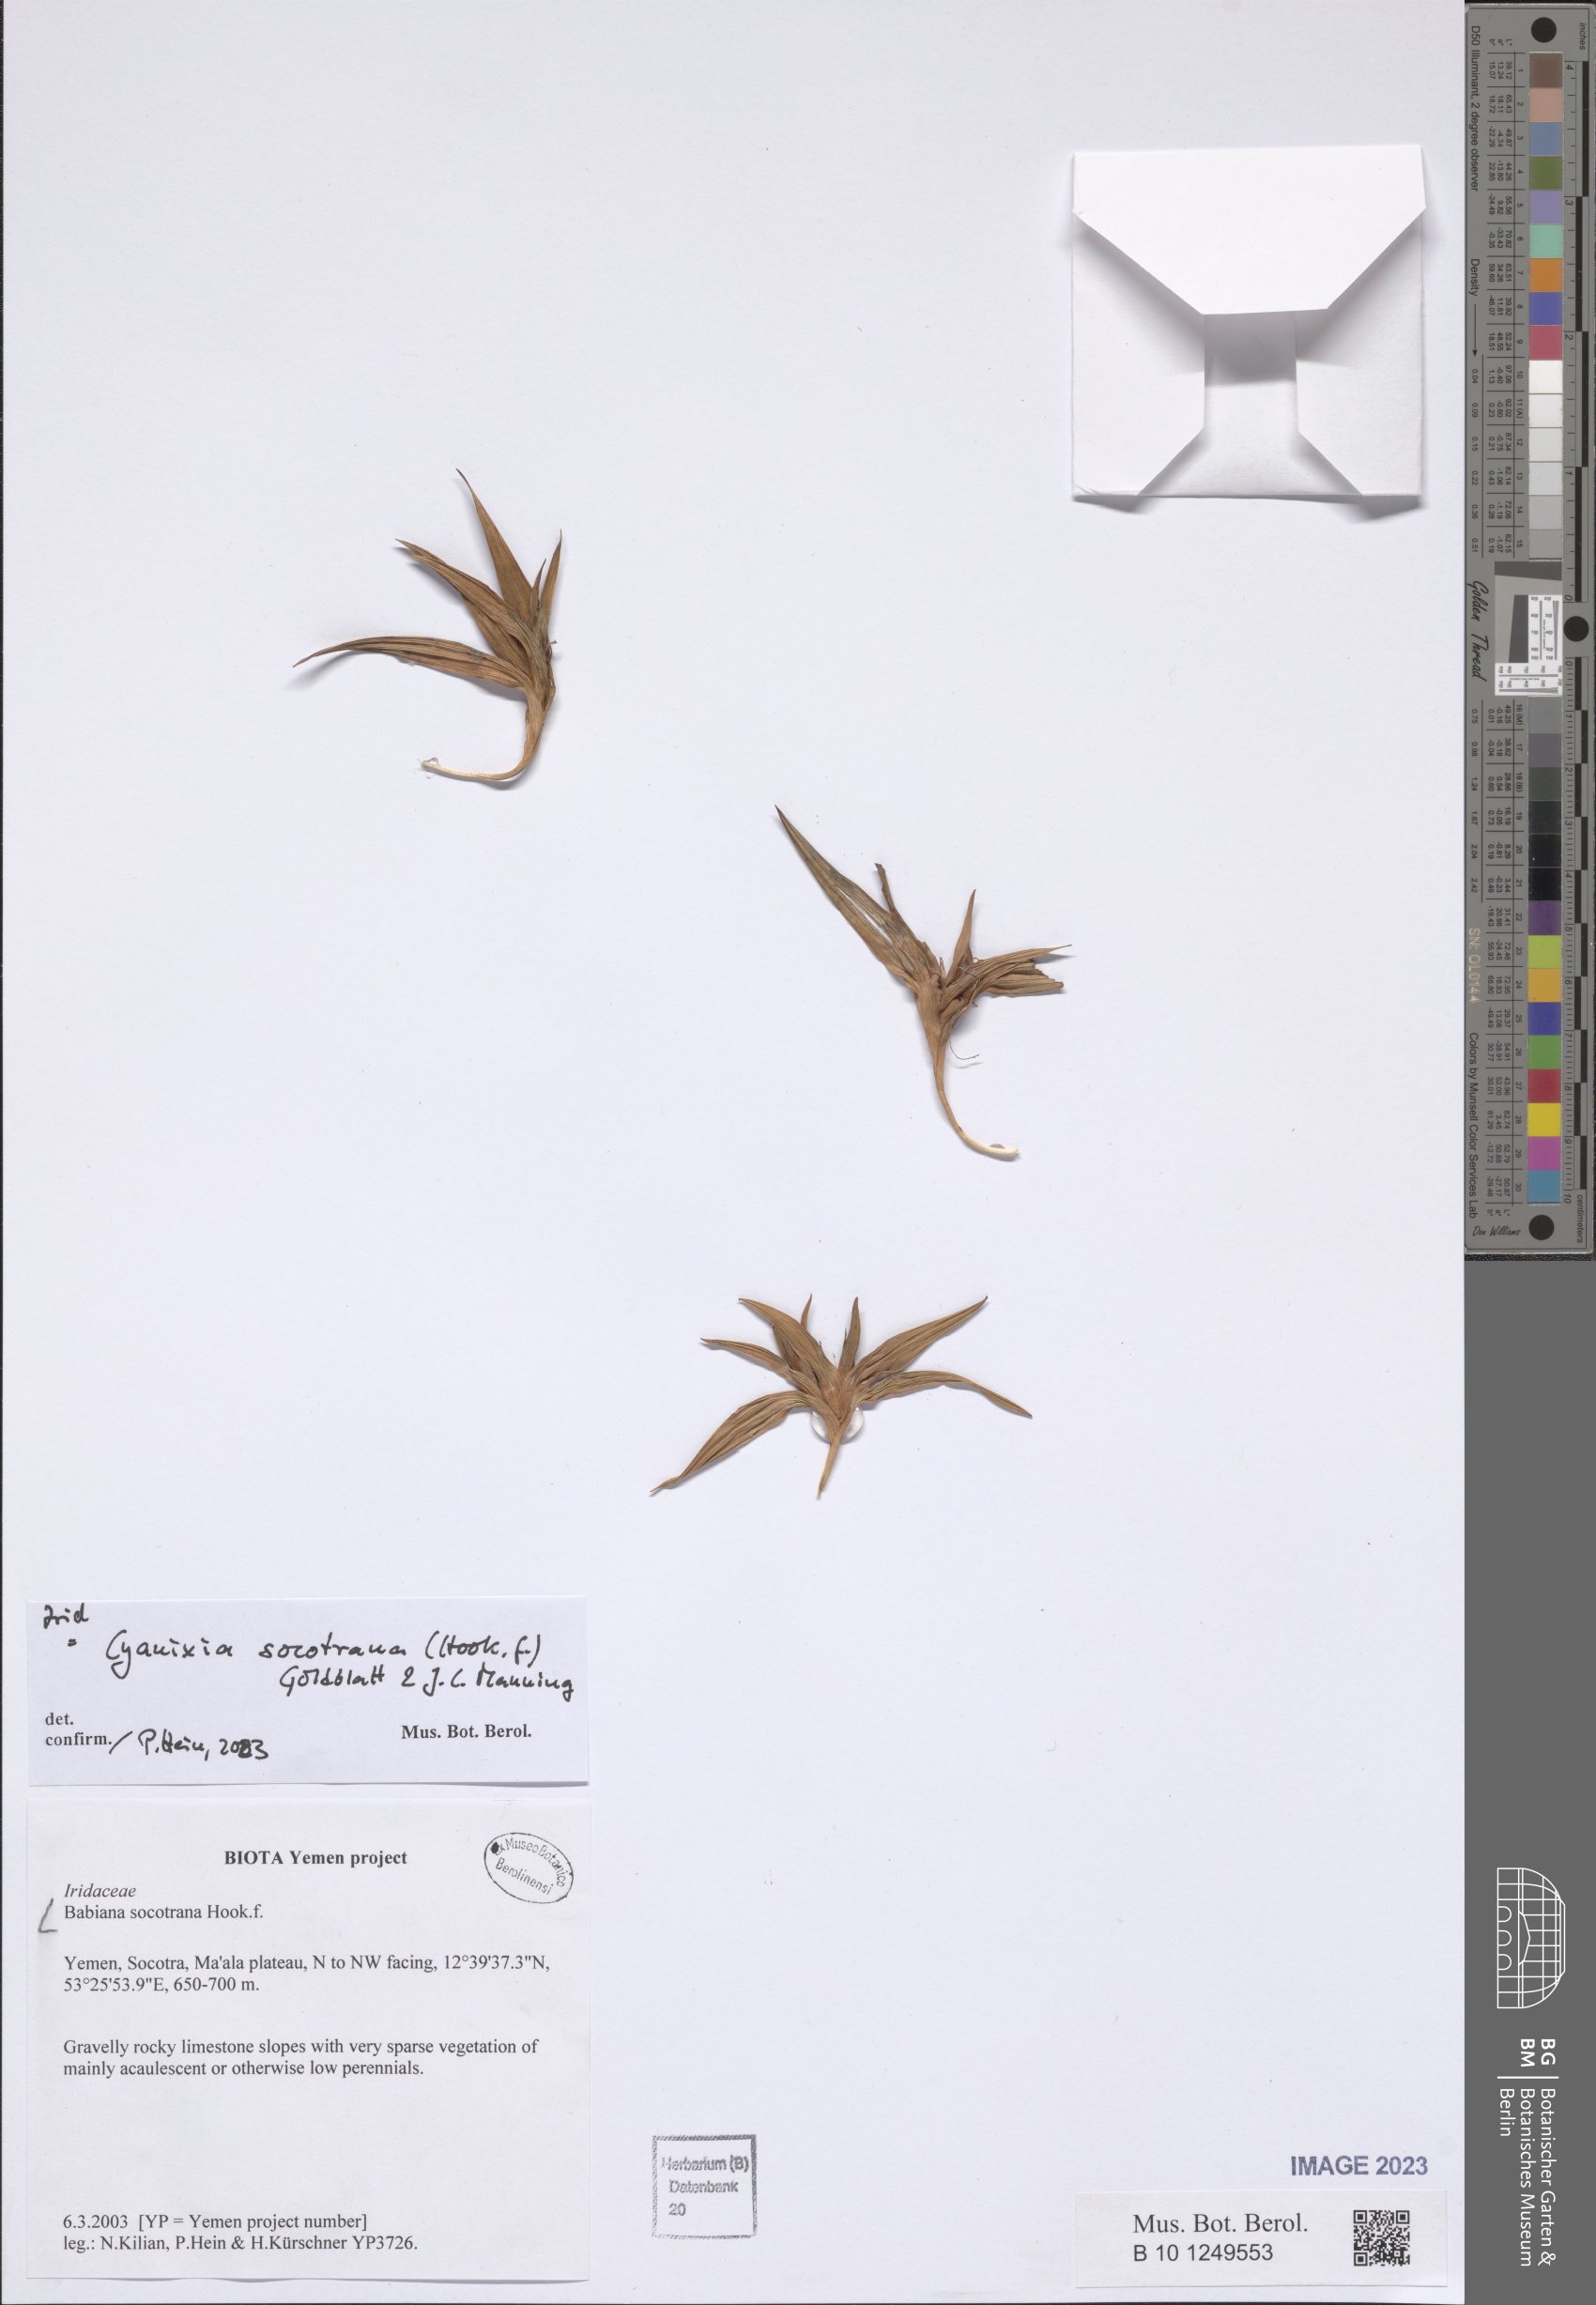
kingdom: Plantae
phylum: Tracheophyta
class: Liliopsida
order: Asparagales
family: Iridaceae
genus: Cyanixia
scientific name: Cyanixia socotrana
